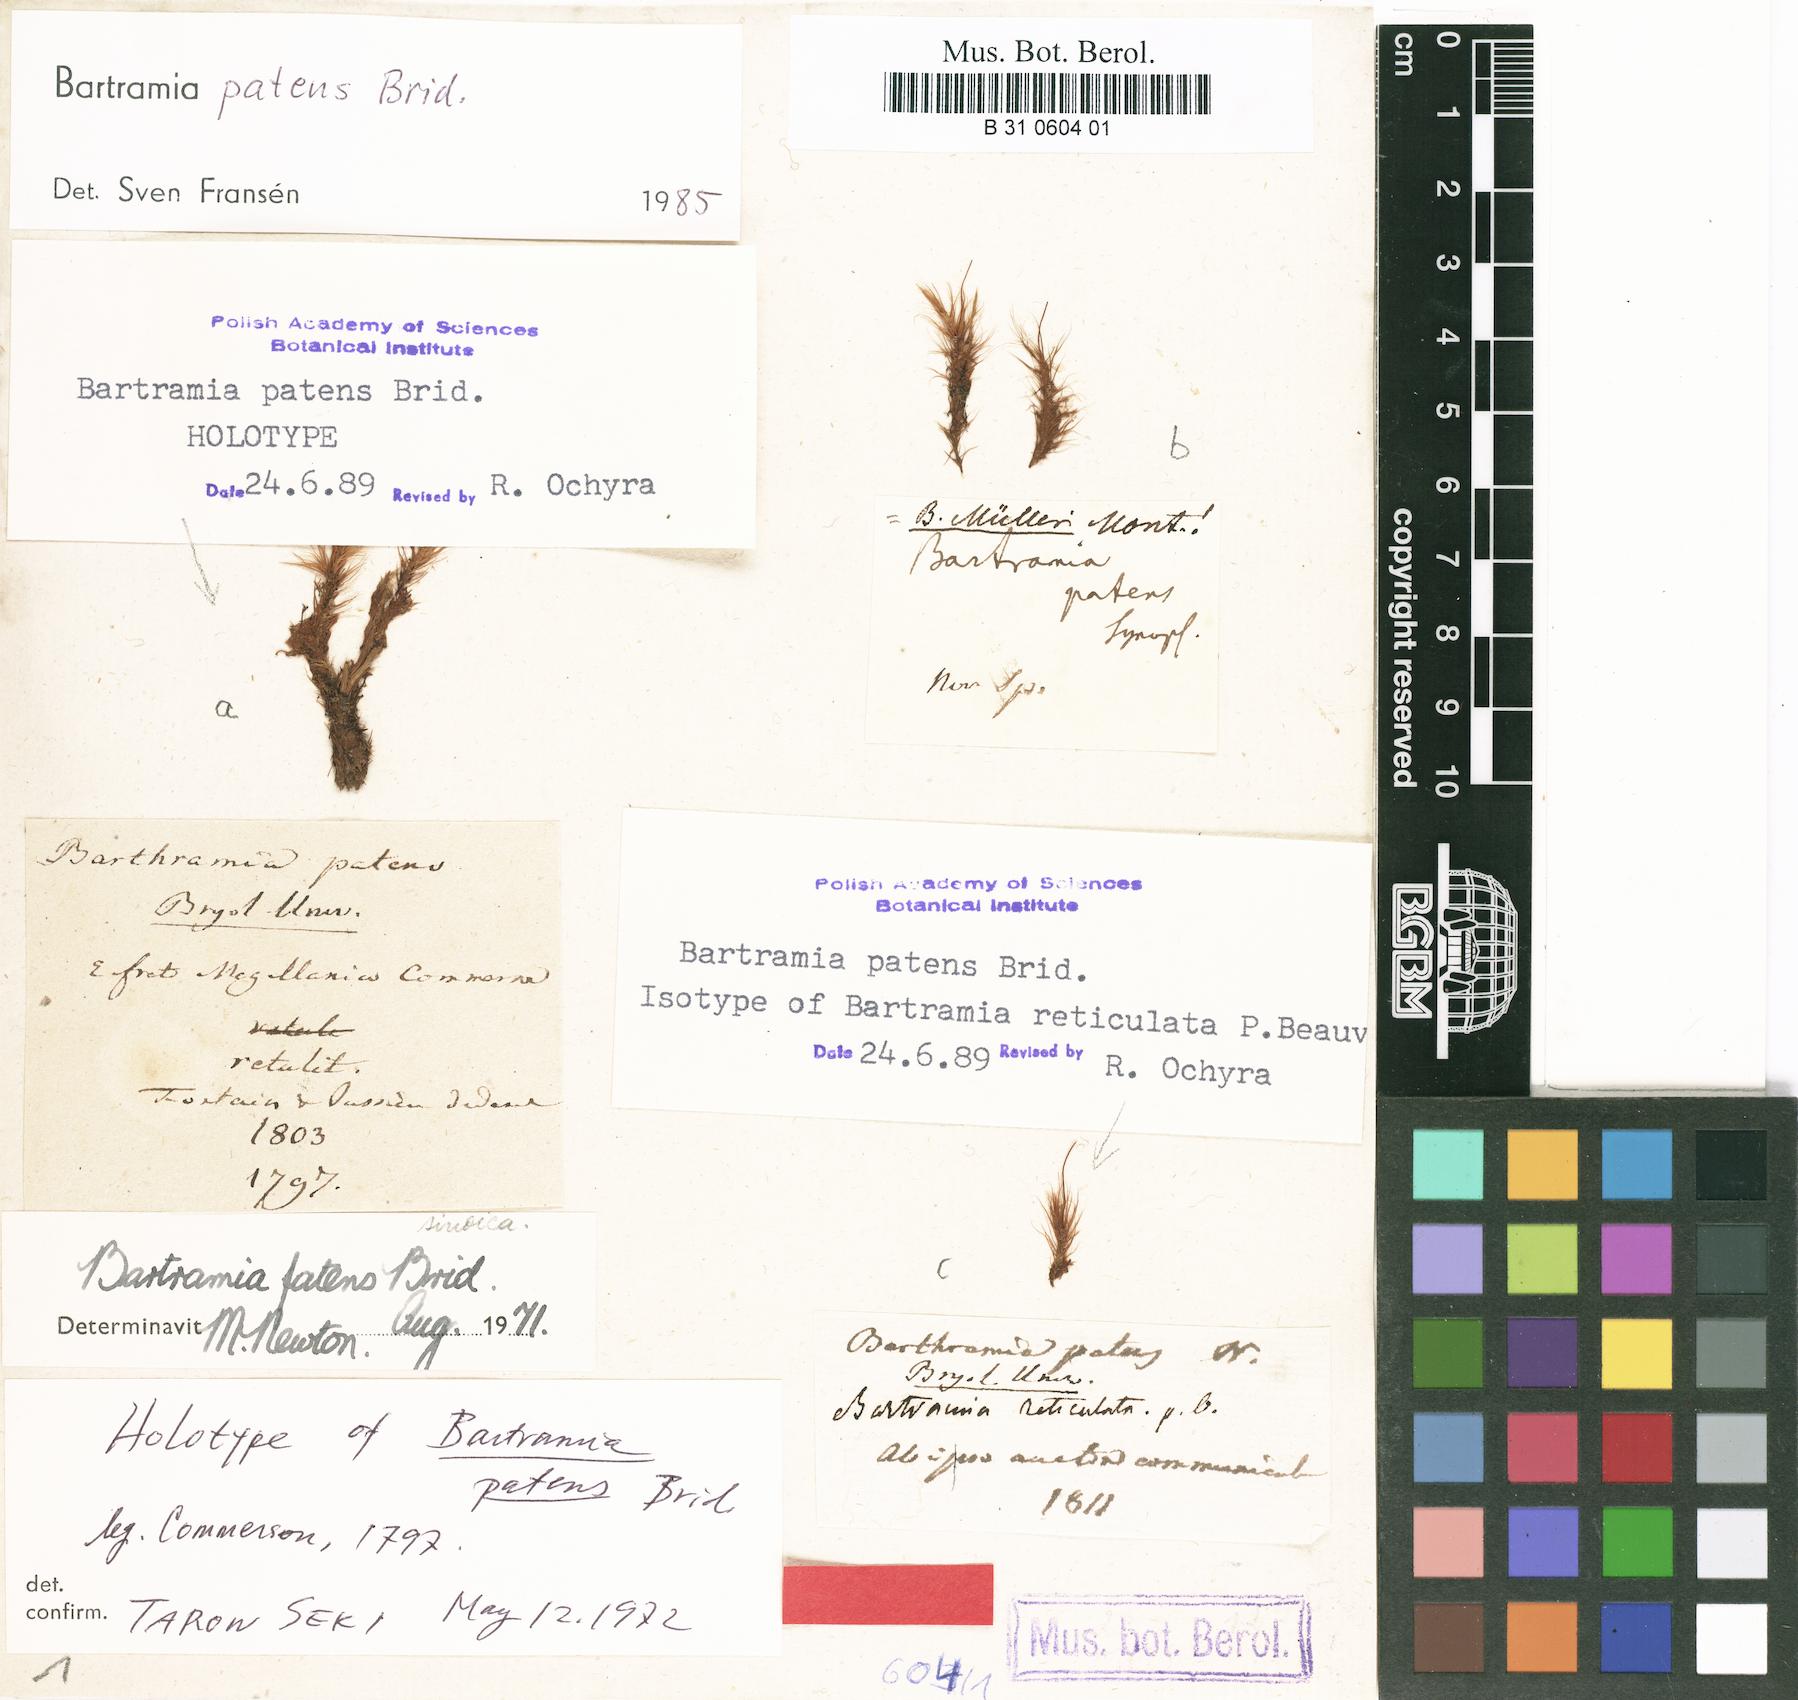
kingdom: Plantae
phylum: Bryophyta
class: Bryopsida
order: Bartramiales
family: Bartramiaceae
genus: Bartramia
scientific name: Bartramia ithyphylla
